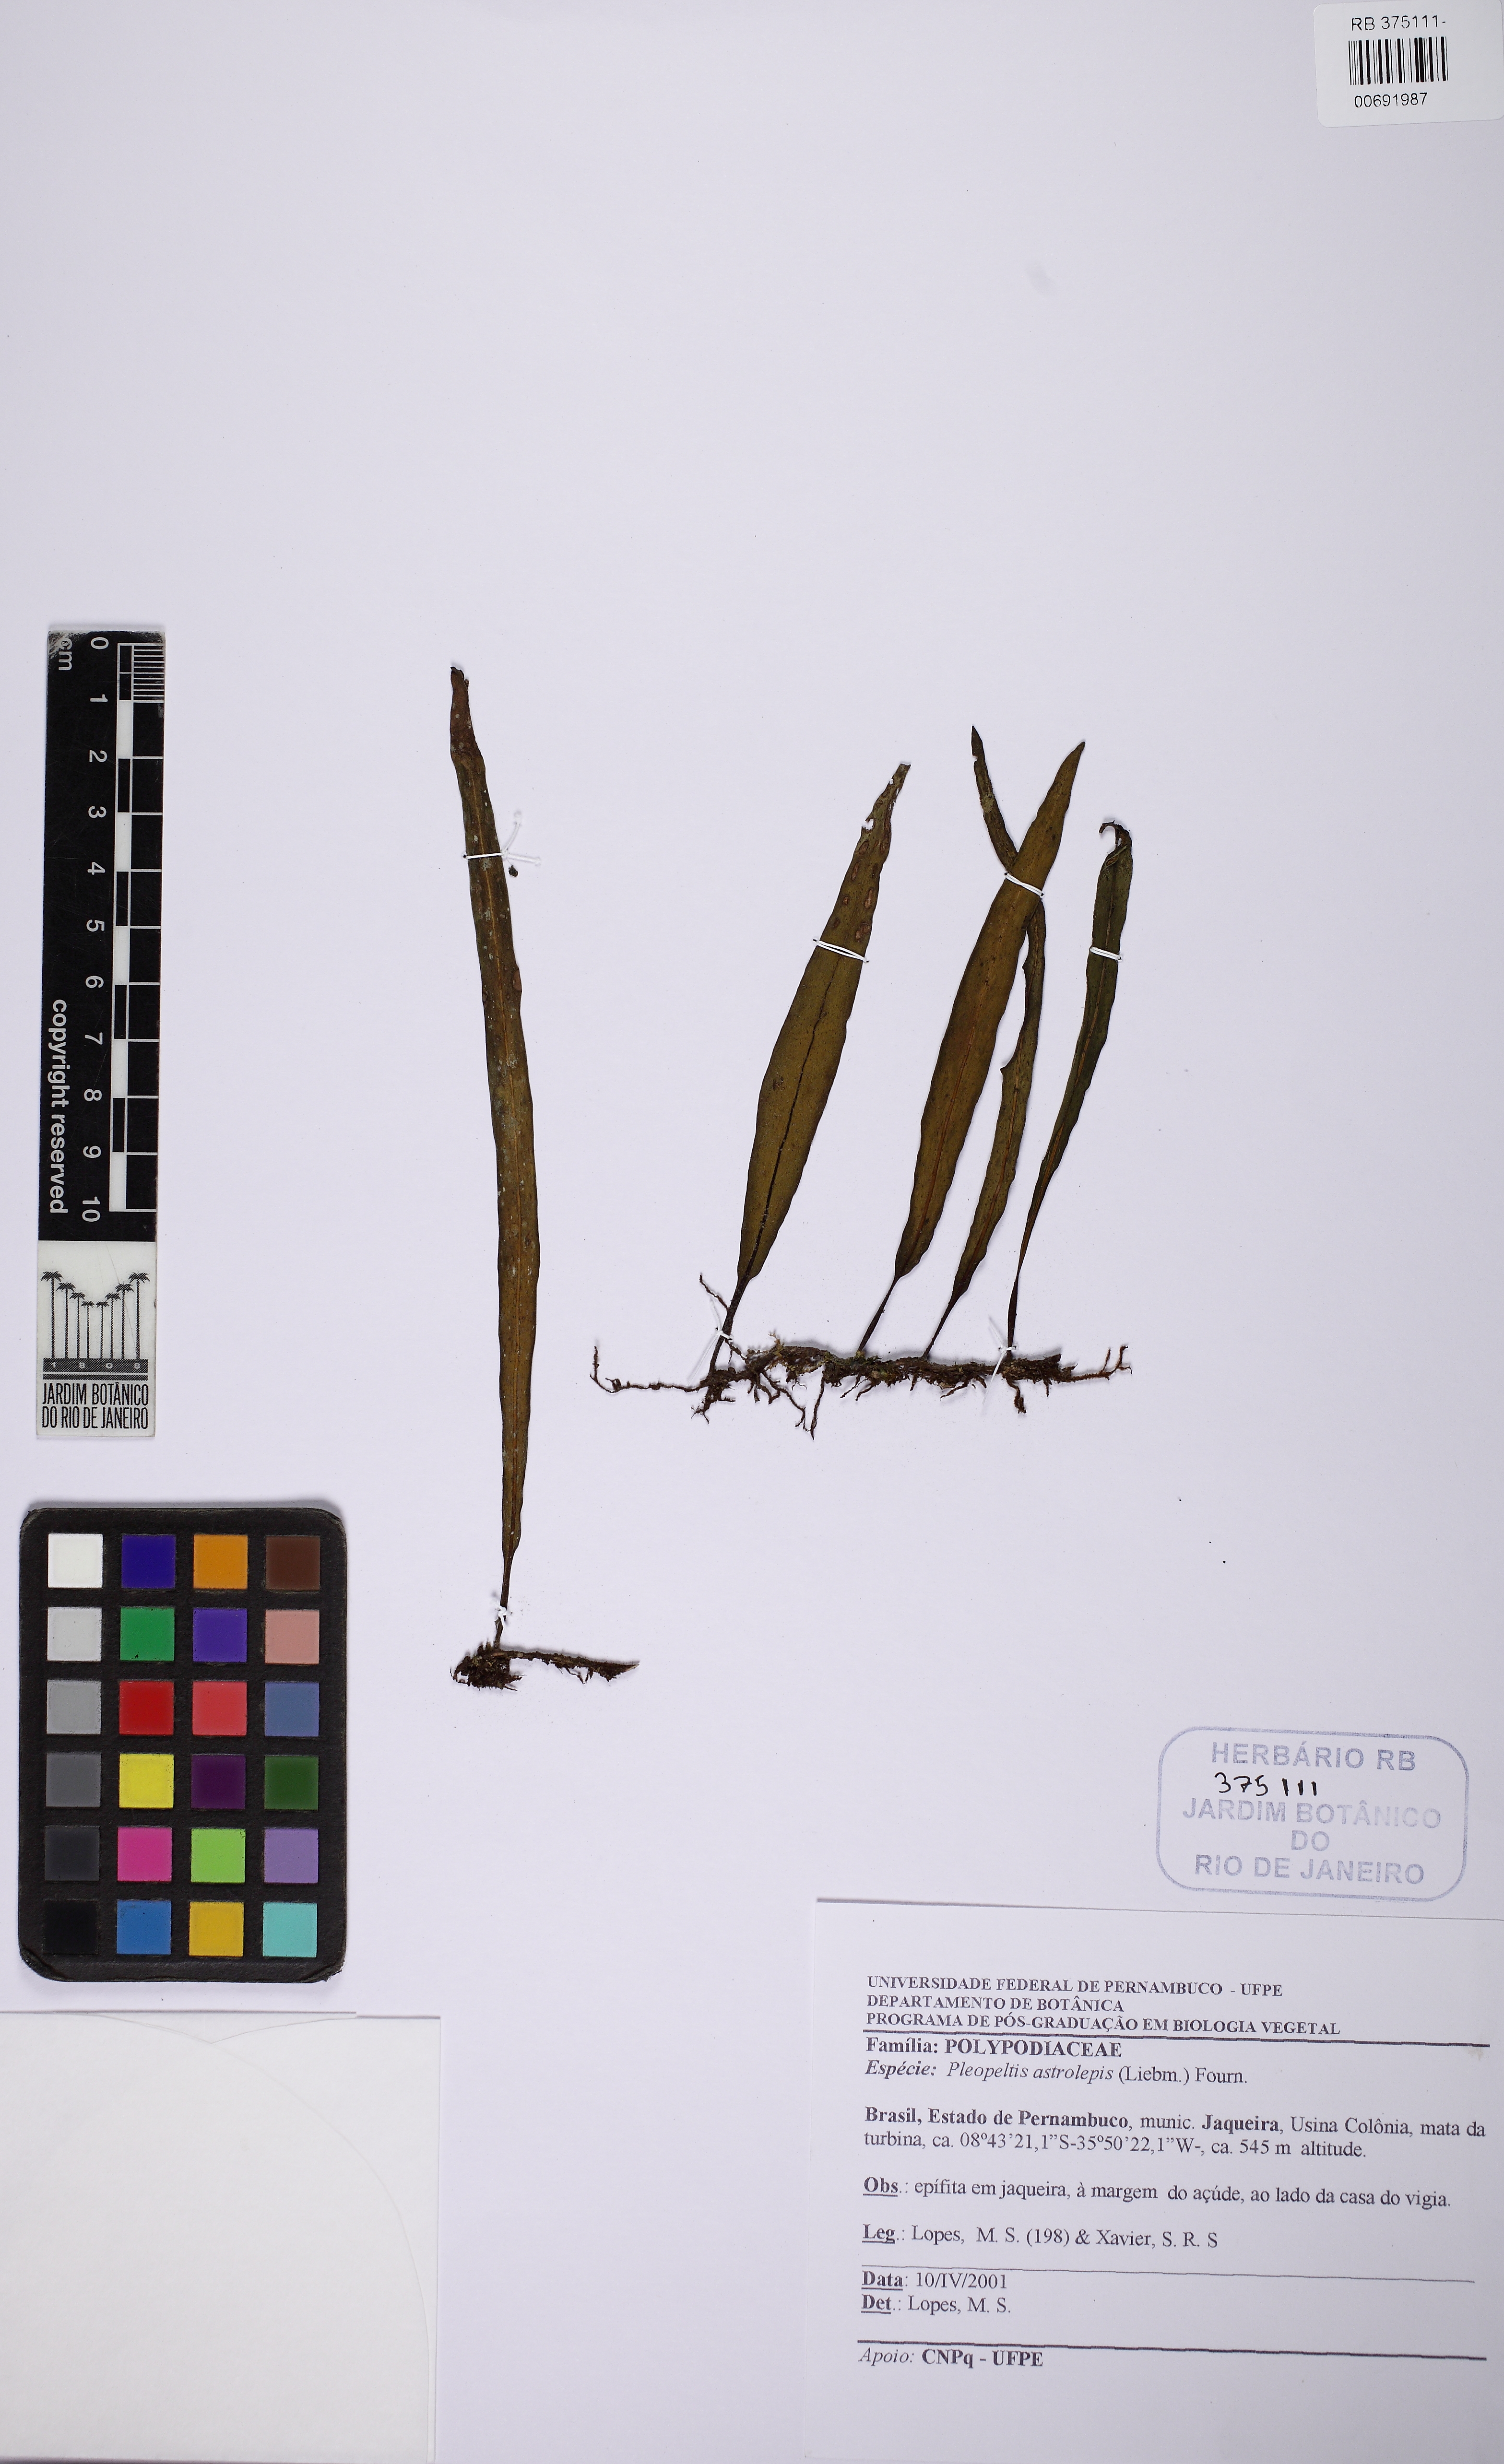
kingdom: Plantae
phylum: Tracheophyta
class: Polypodiopsida
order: Polypodiales
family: Polypodiaceae
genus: Pleopeltis
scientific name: Pleopeltis astrolepis
